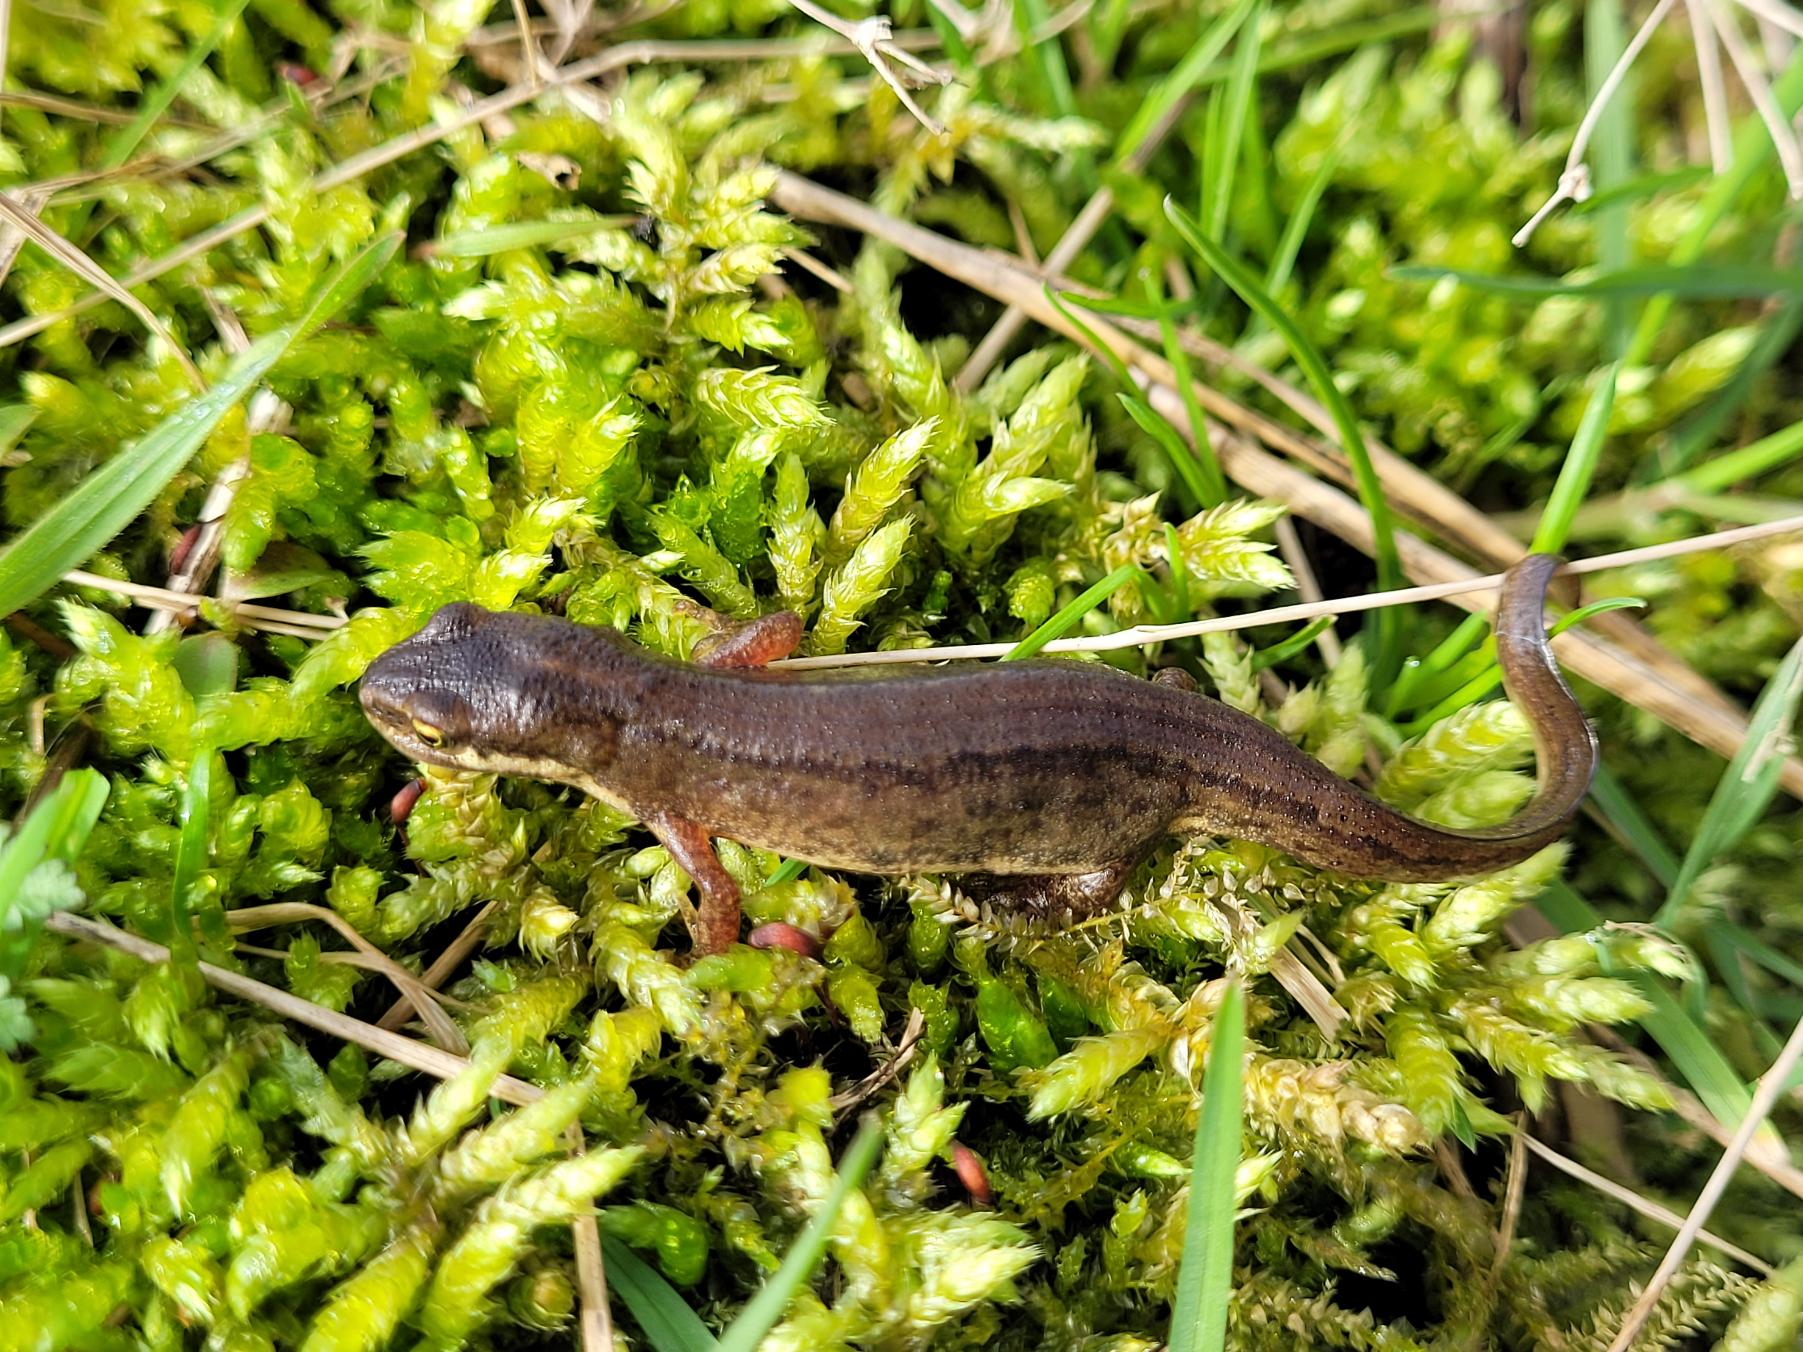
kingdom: Animalia
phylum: Chordata
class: Amphibia
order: Caudata
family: Salamandridae
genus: Lissotriton
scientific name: Lissotriton vulgaris
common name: Lille vandsalamander
